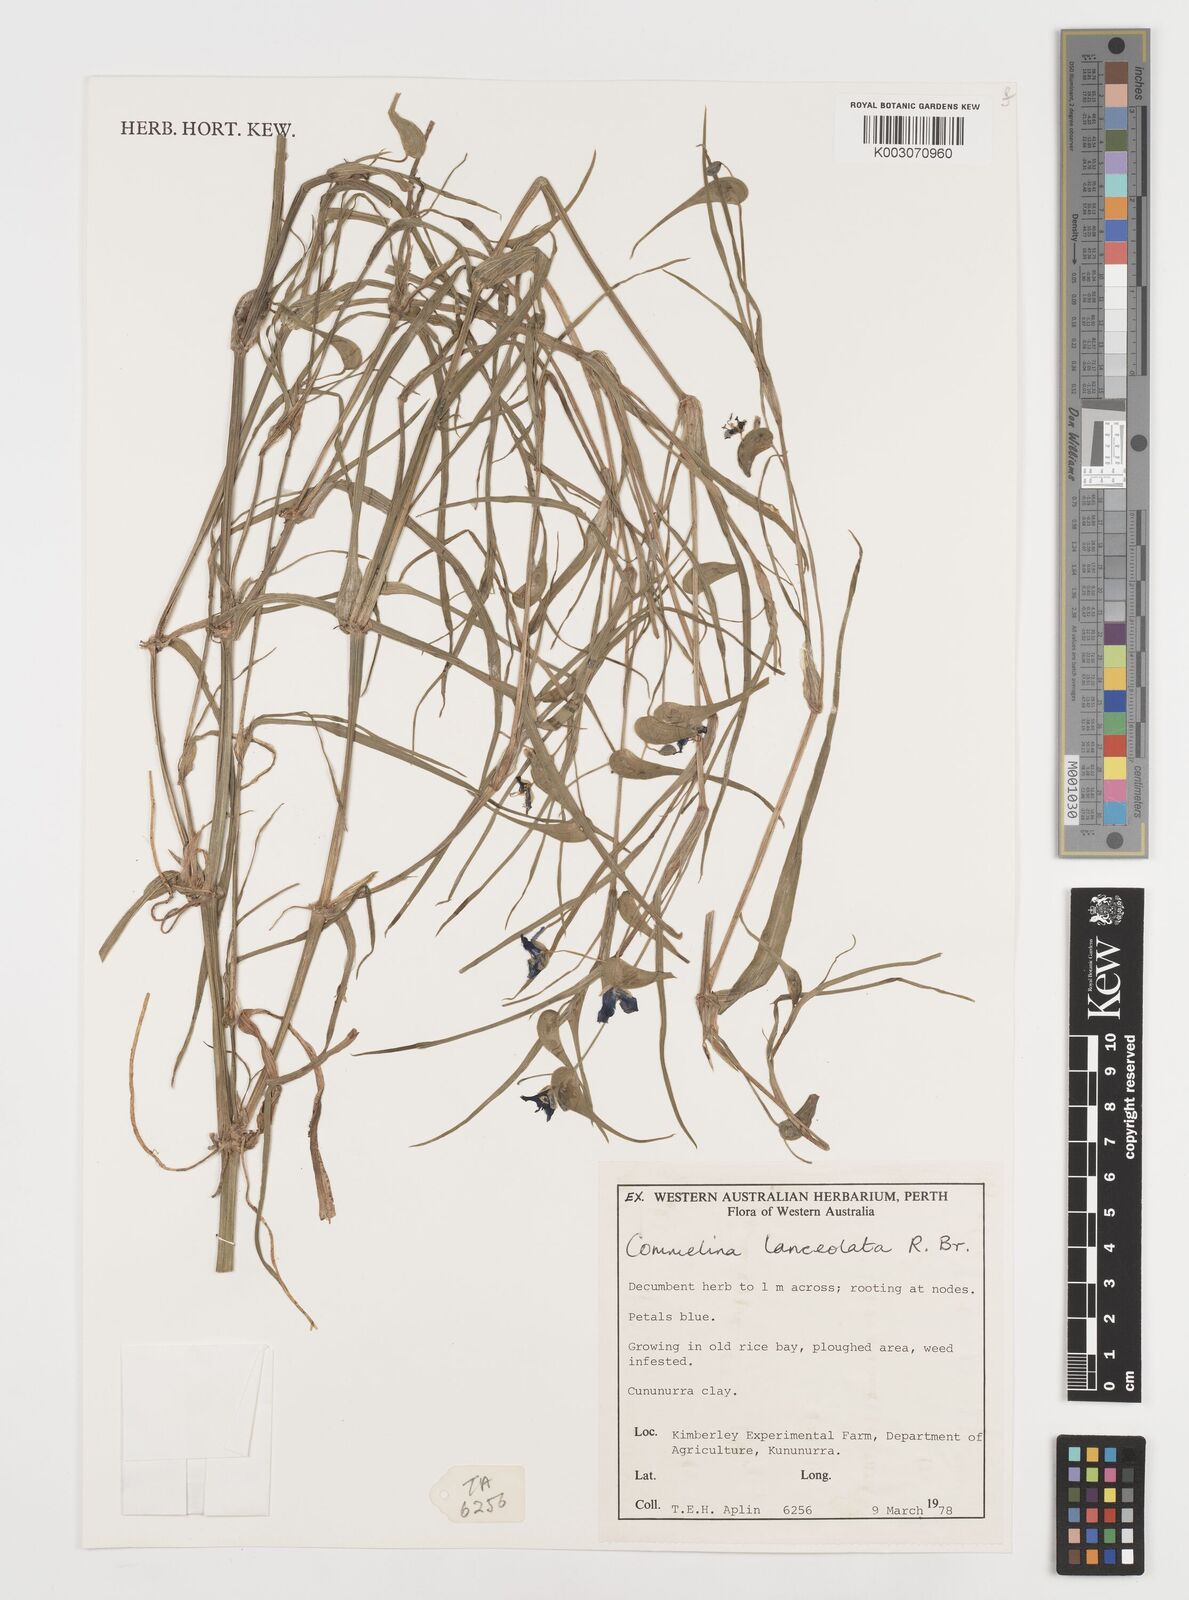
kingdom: Plantae
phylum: Tracheophyta
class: Liliopsida
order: Commelinales
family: Commelinaceae
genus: Commelina
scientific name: Commelina lanceolata
